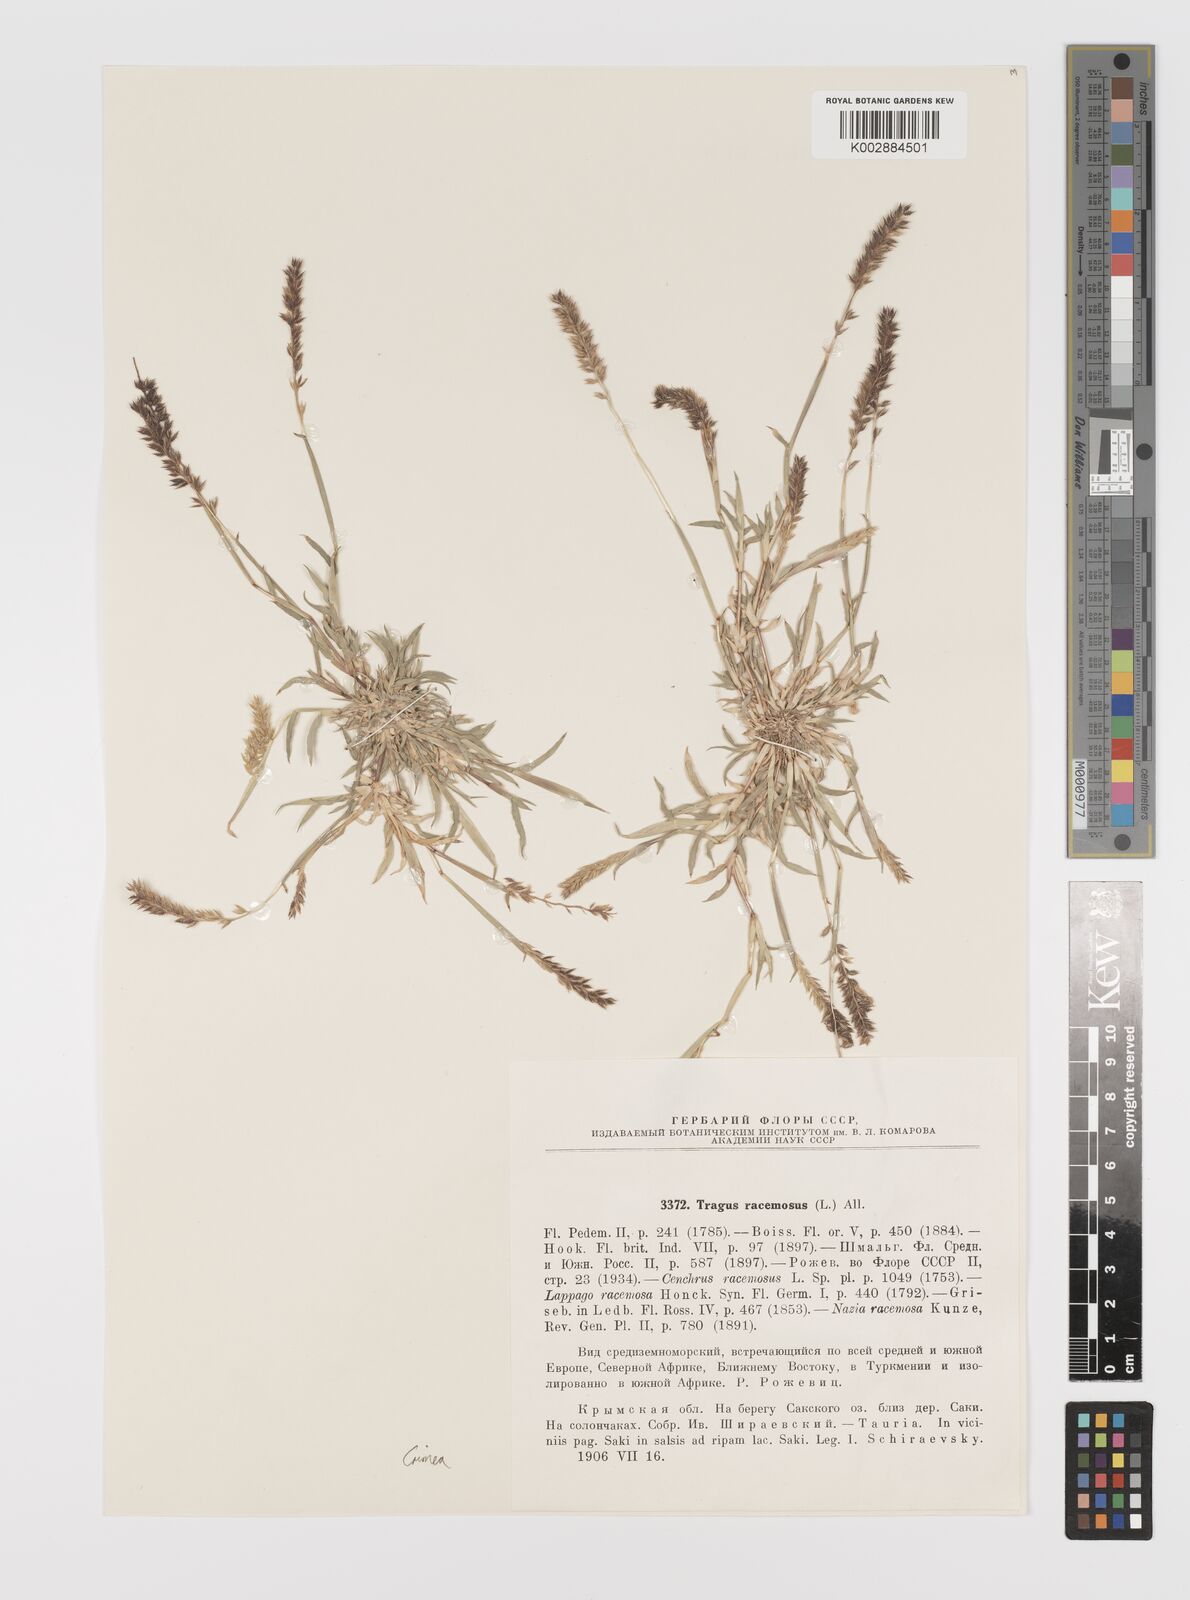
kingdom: Plantae
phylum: Tracheophyta
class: Liliopsida
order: Poales
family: Poaceae
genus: Tragus
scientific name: Tragus racemosus
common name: European bur-grass
